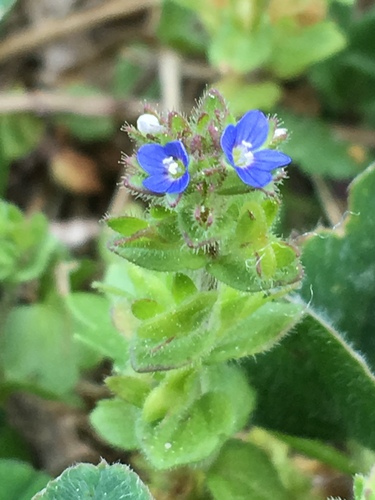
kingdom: Plantae
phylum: Tracheophyta
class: Magnoliopsida
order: Lamiales
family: Plantaginaceae
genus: Veronica
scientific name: Veronica arvensis
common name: Corn speedwell
